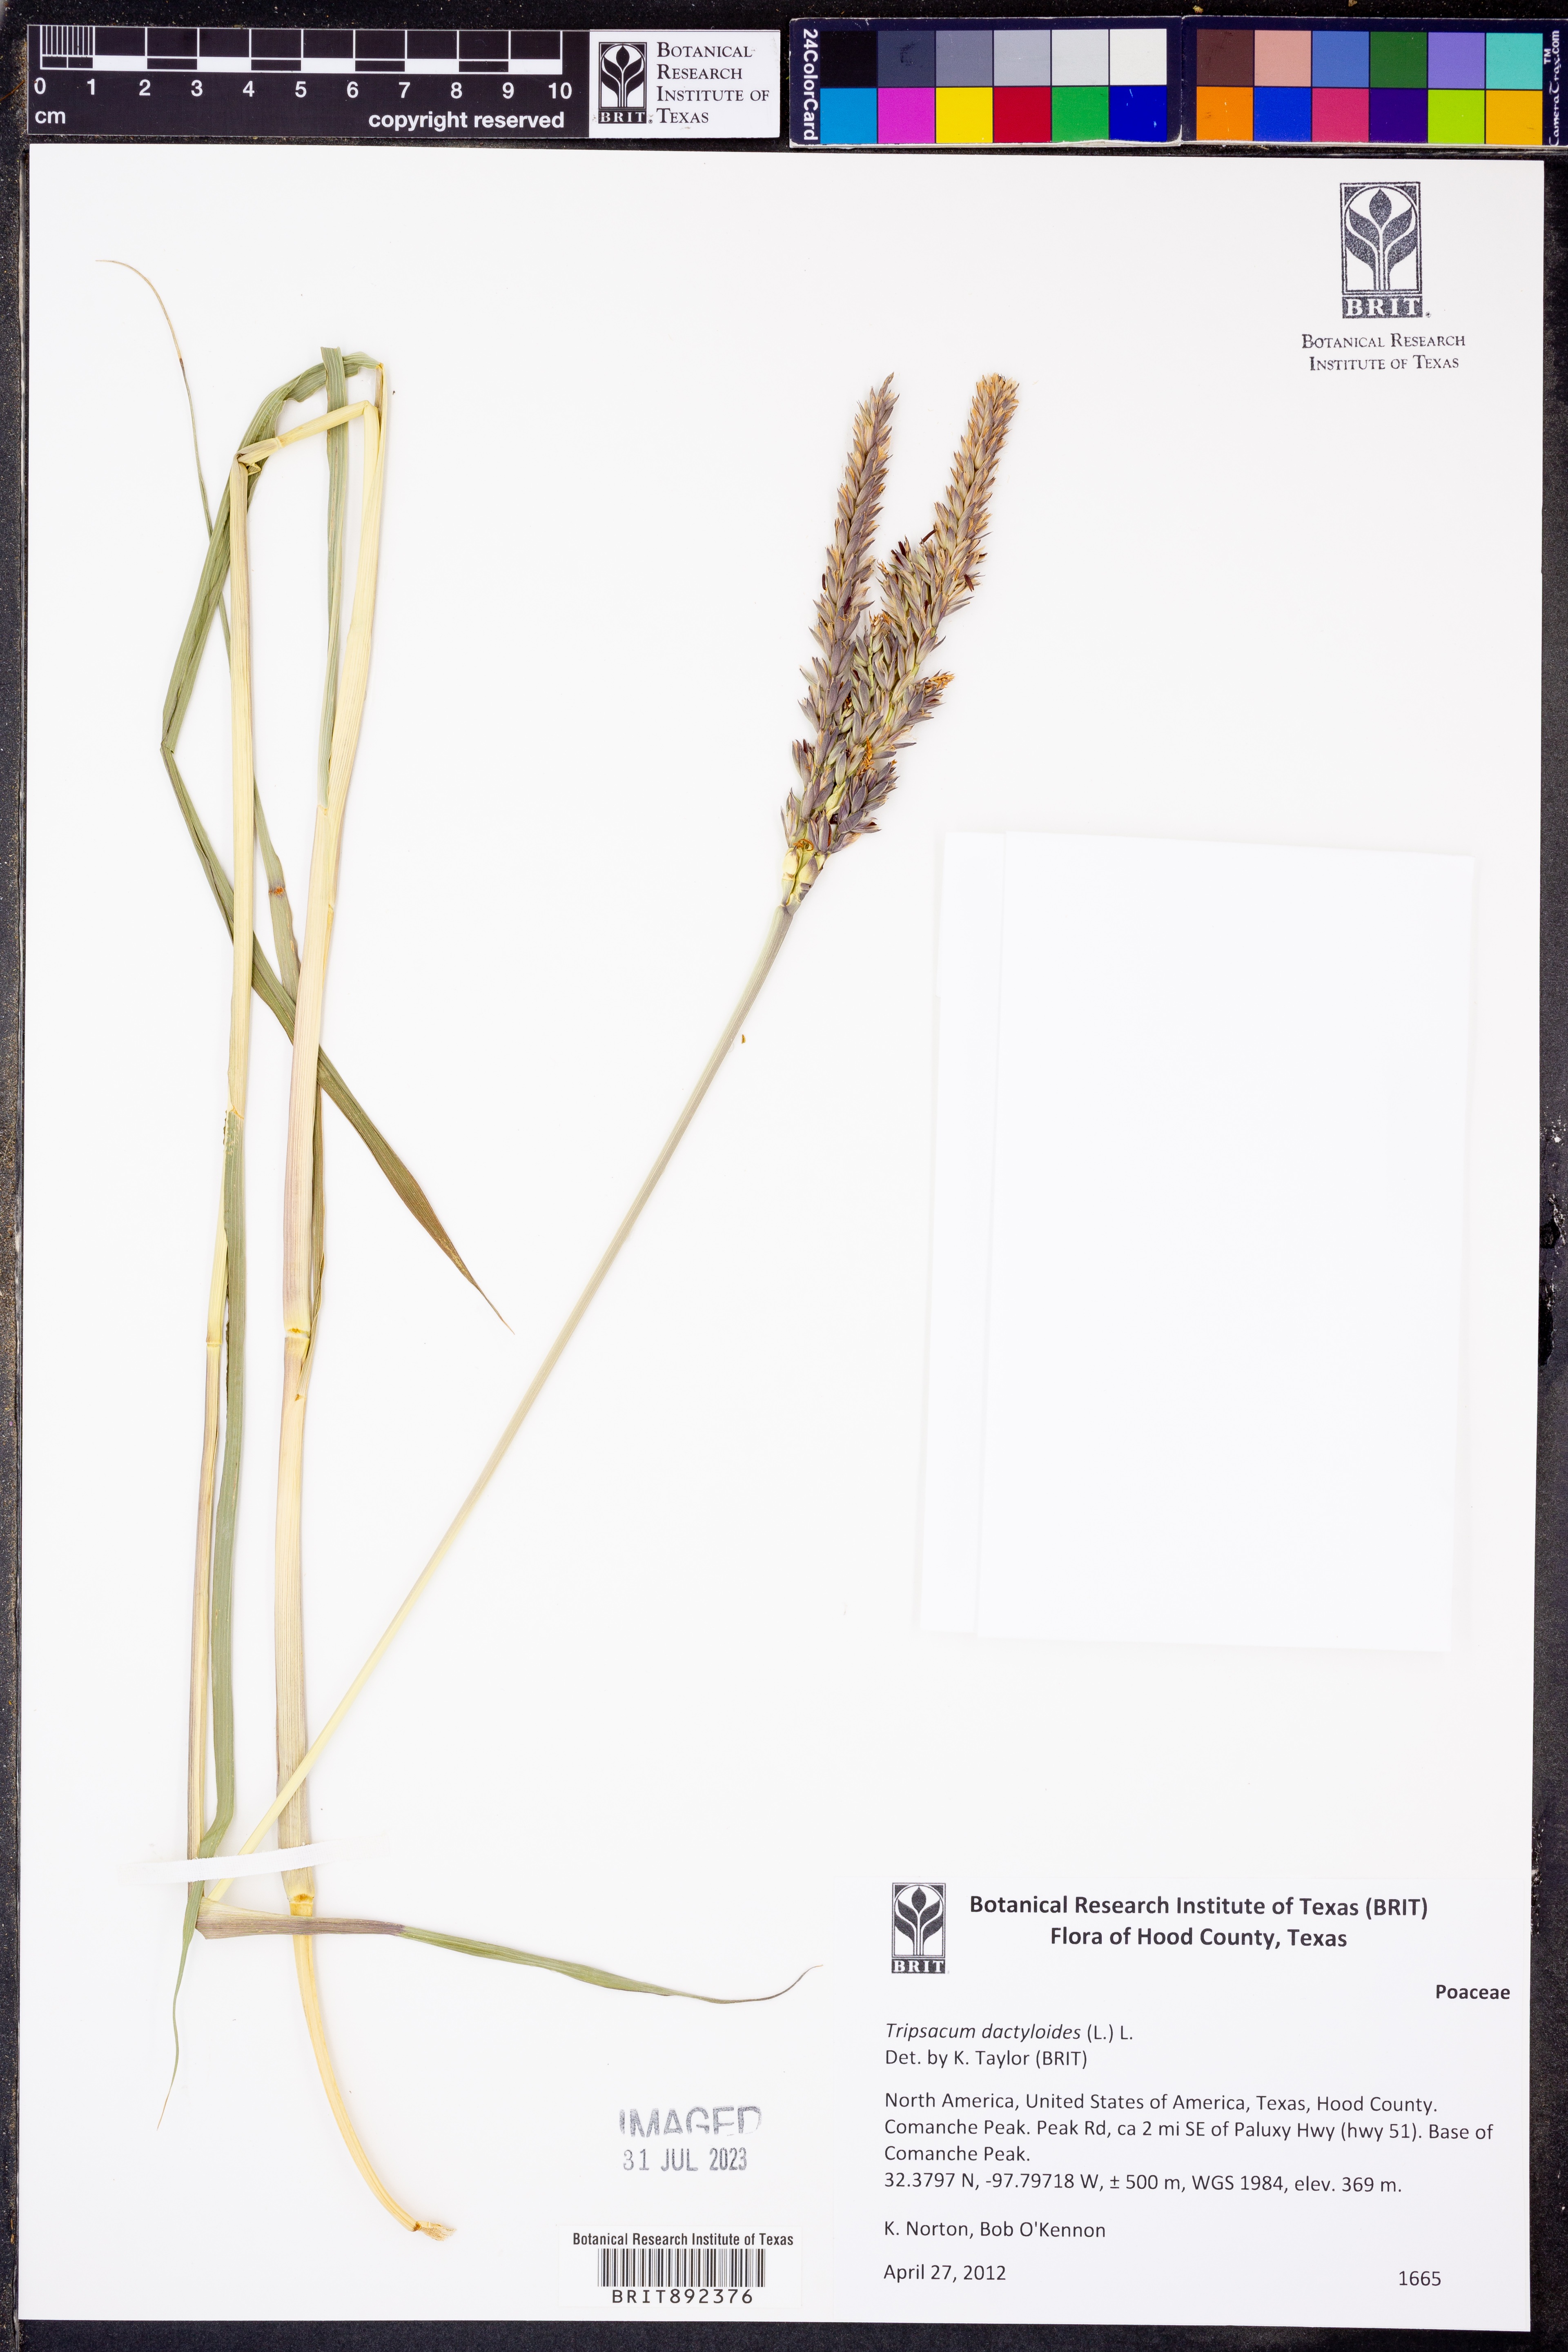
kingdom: Plantae
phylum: Tracheophyta
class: Liliopsida
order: Poales
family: Poaceae
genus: Tripsacum
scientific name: Tripsacum dactyloides
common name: Buffalo-grass
